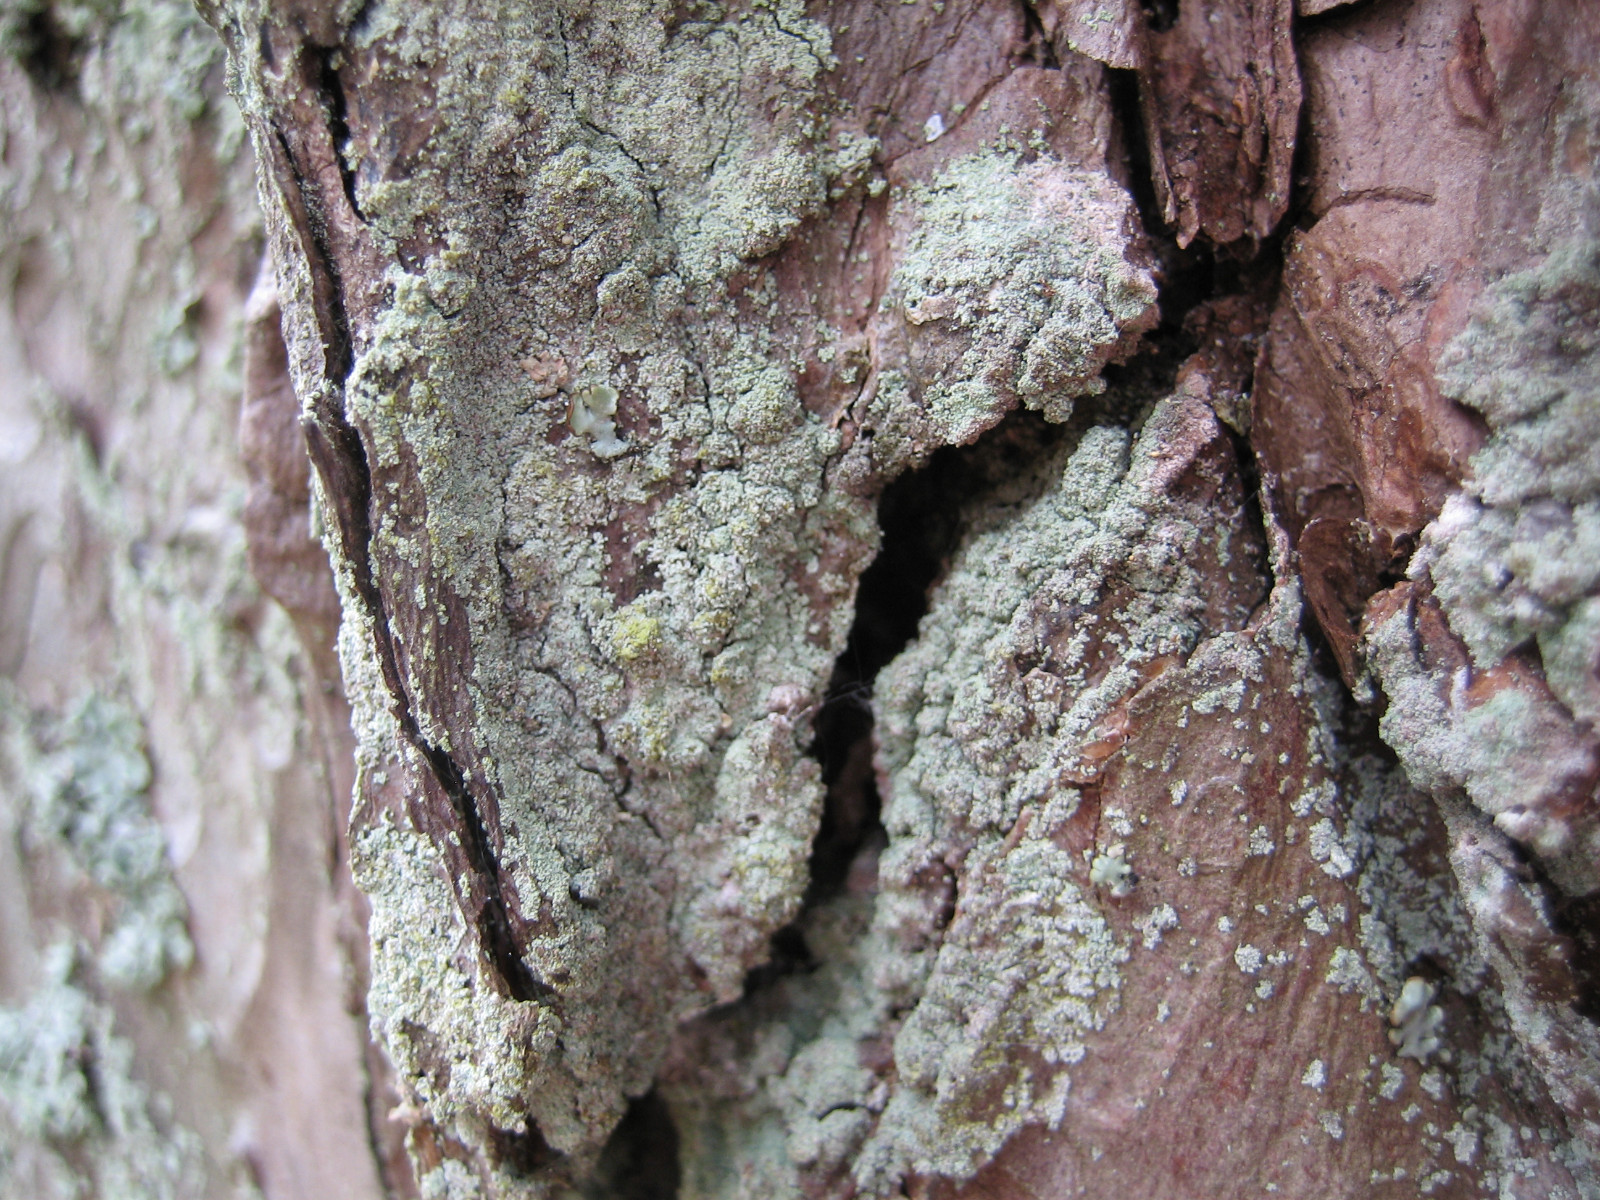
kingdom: Fungi
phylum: Ascomycota
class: Lecanoromycetes
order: Lecanorales
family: Stereocaulaceae
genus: Lepraria
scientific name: Lepraria incana
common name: almindelig støvlav
